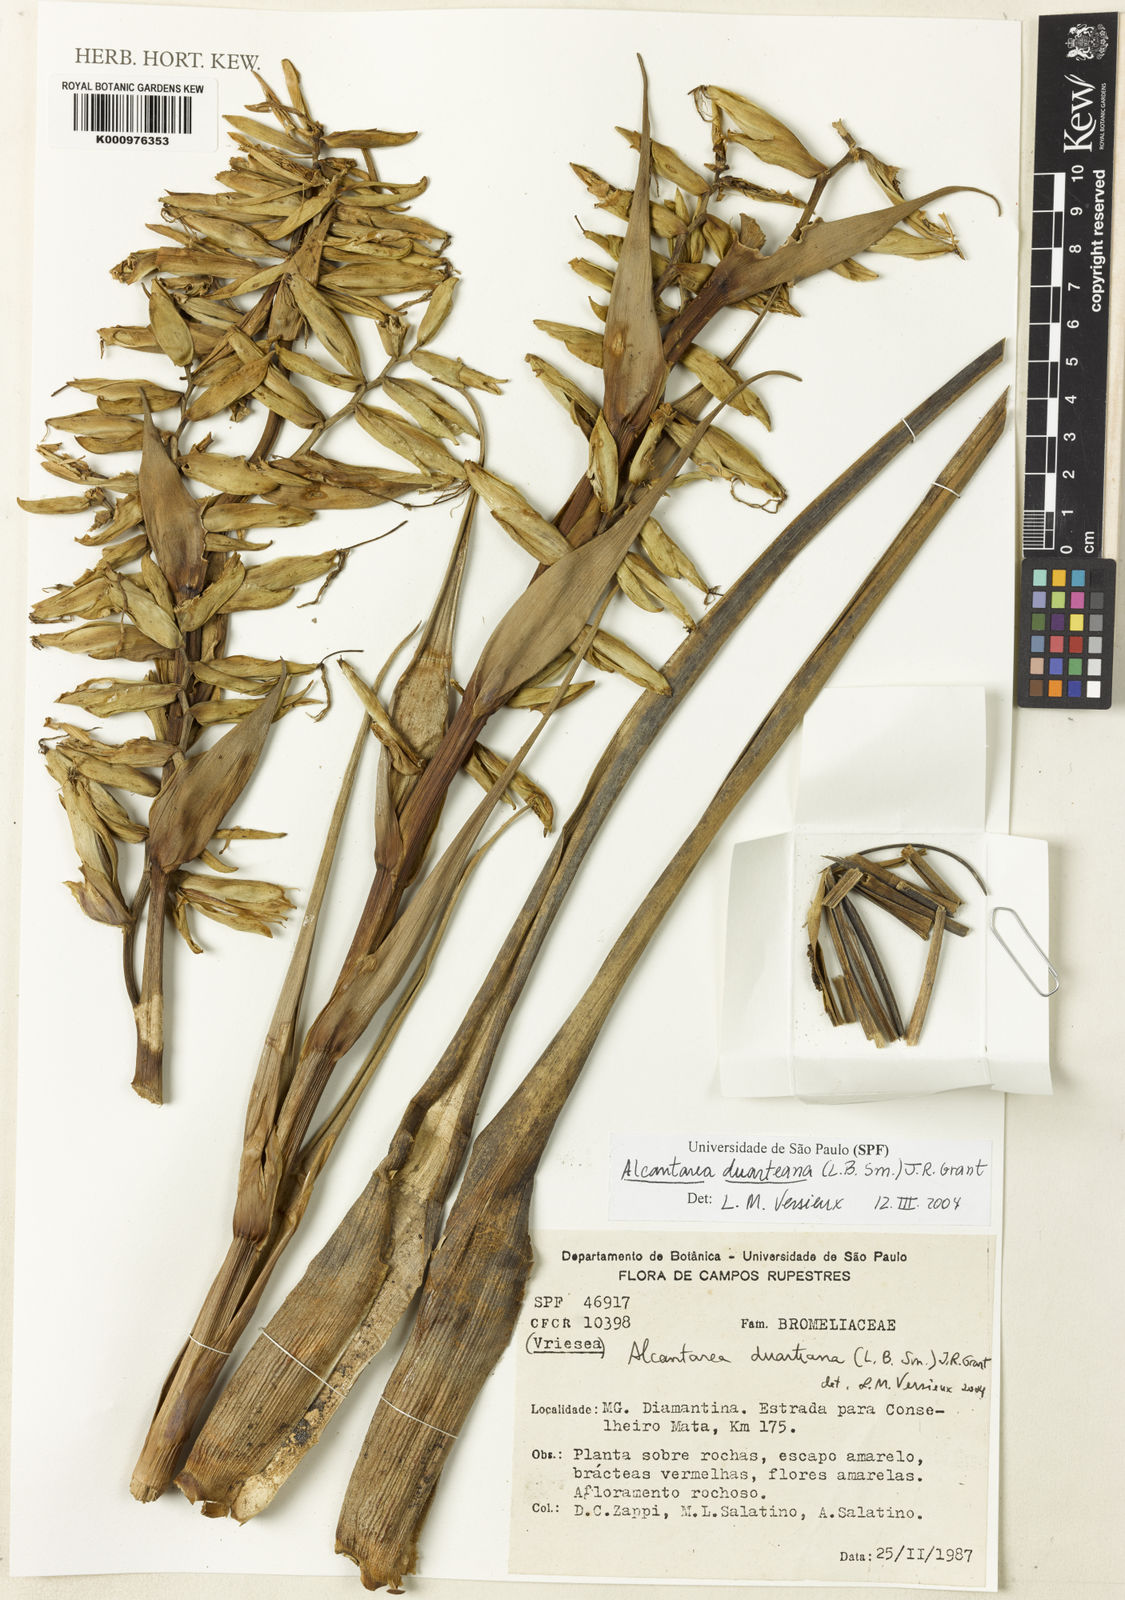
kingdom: Plantae
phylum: Tracheophyta
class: Liliopsida
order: Poales
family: Bromeliaceae
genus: Alcantarea
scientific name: Alcantarea duarteana
